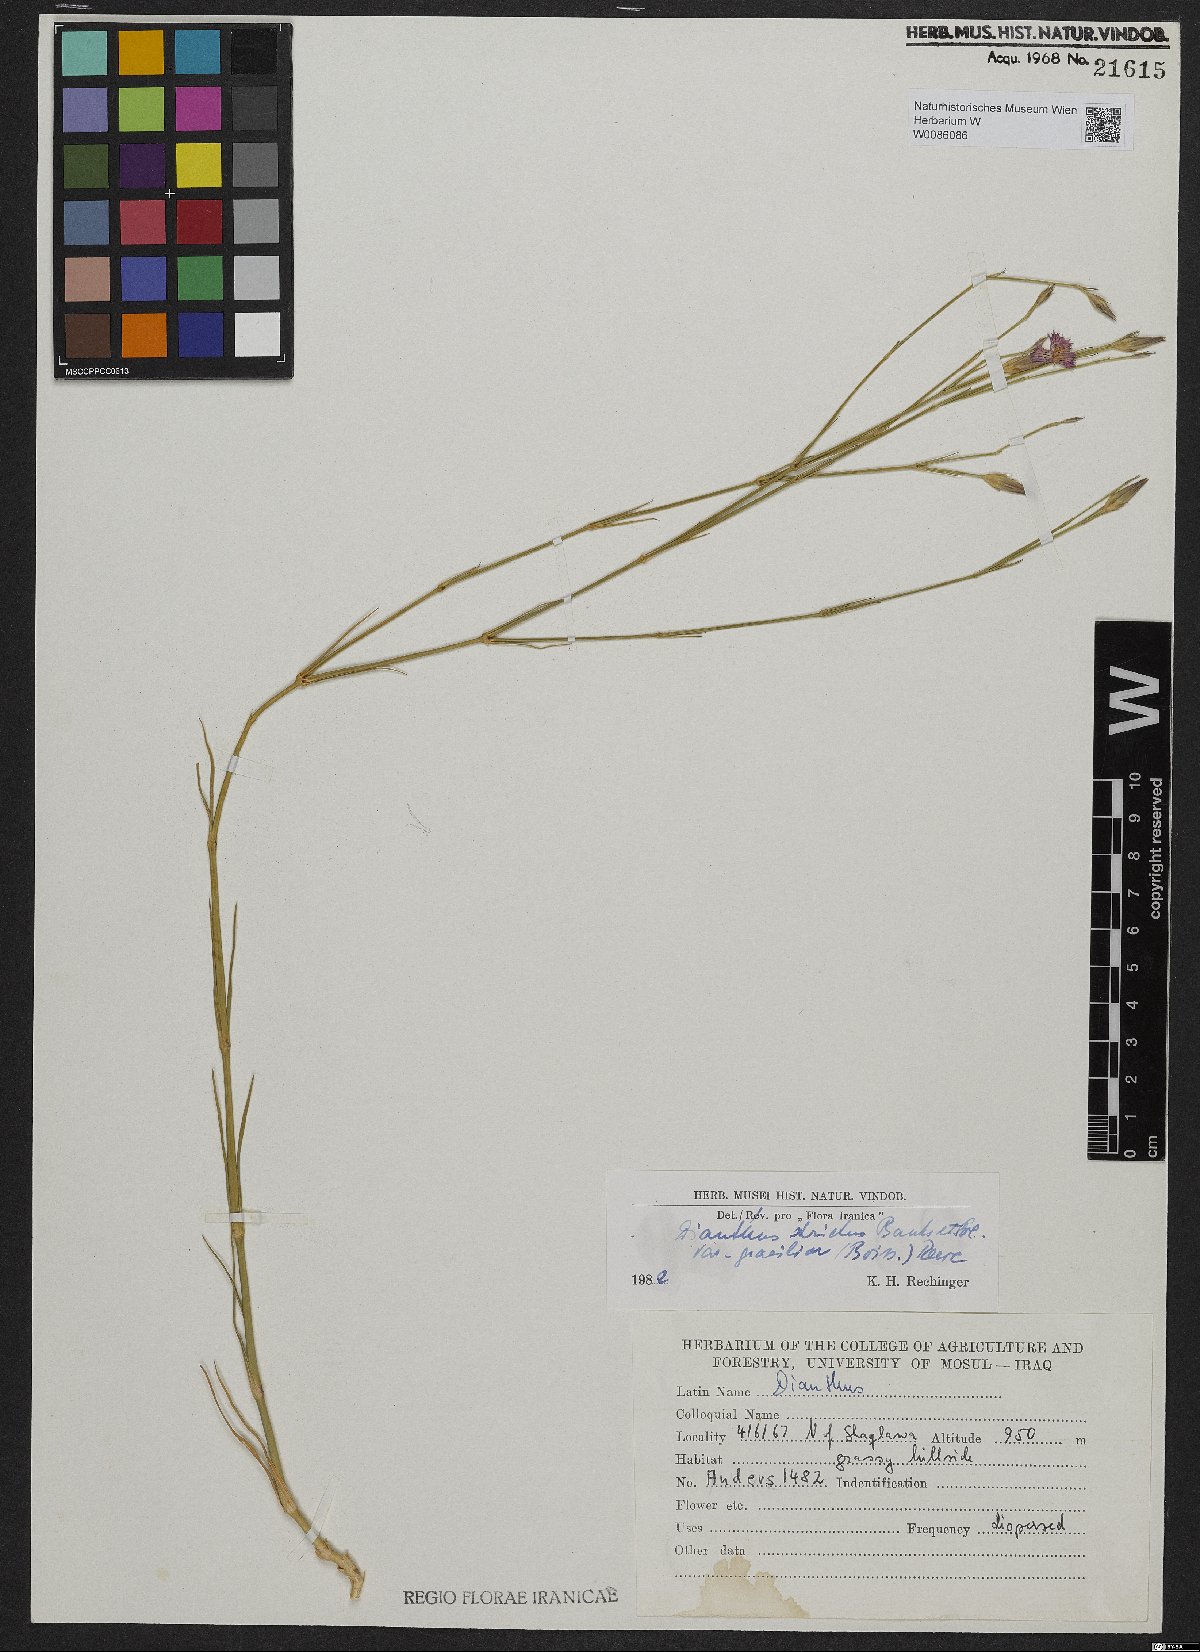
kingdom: Plantae
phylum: Tracheophyta
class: Magnoliopsida
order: Caryophyllales
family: Caryophyllaceae
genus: Dianthus
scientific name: Dianthus strictus
